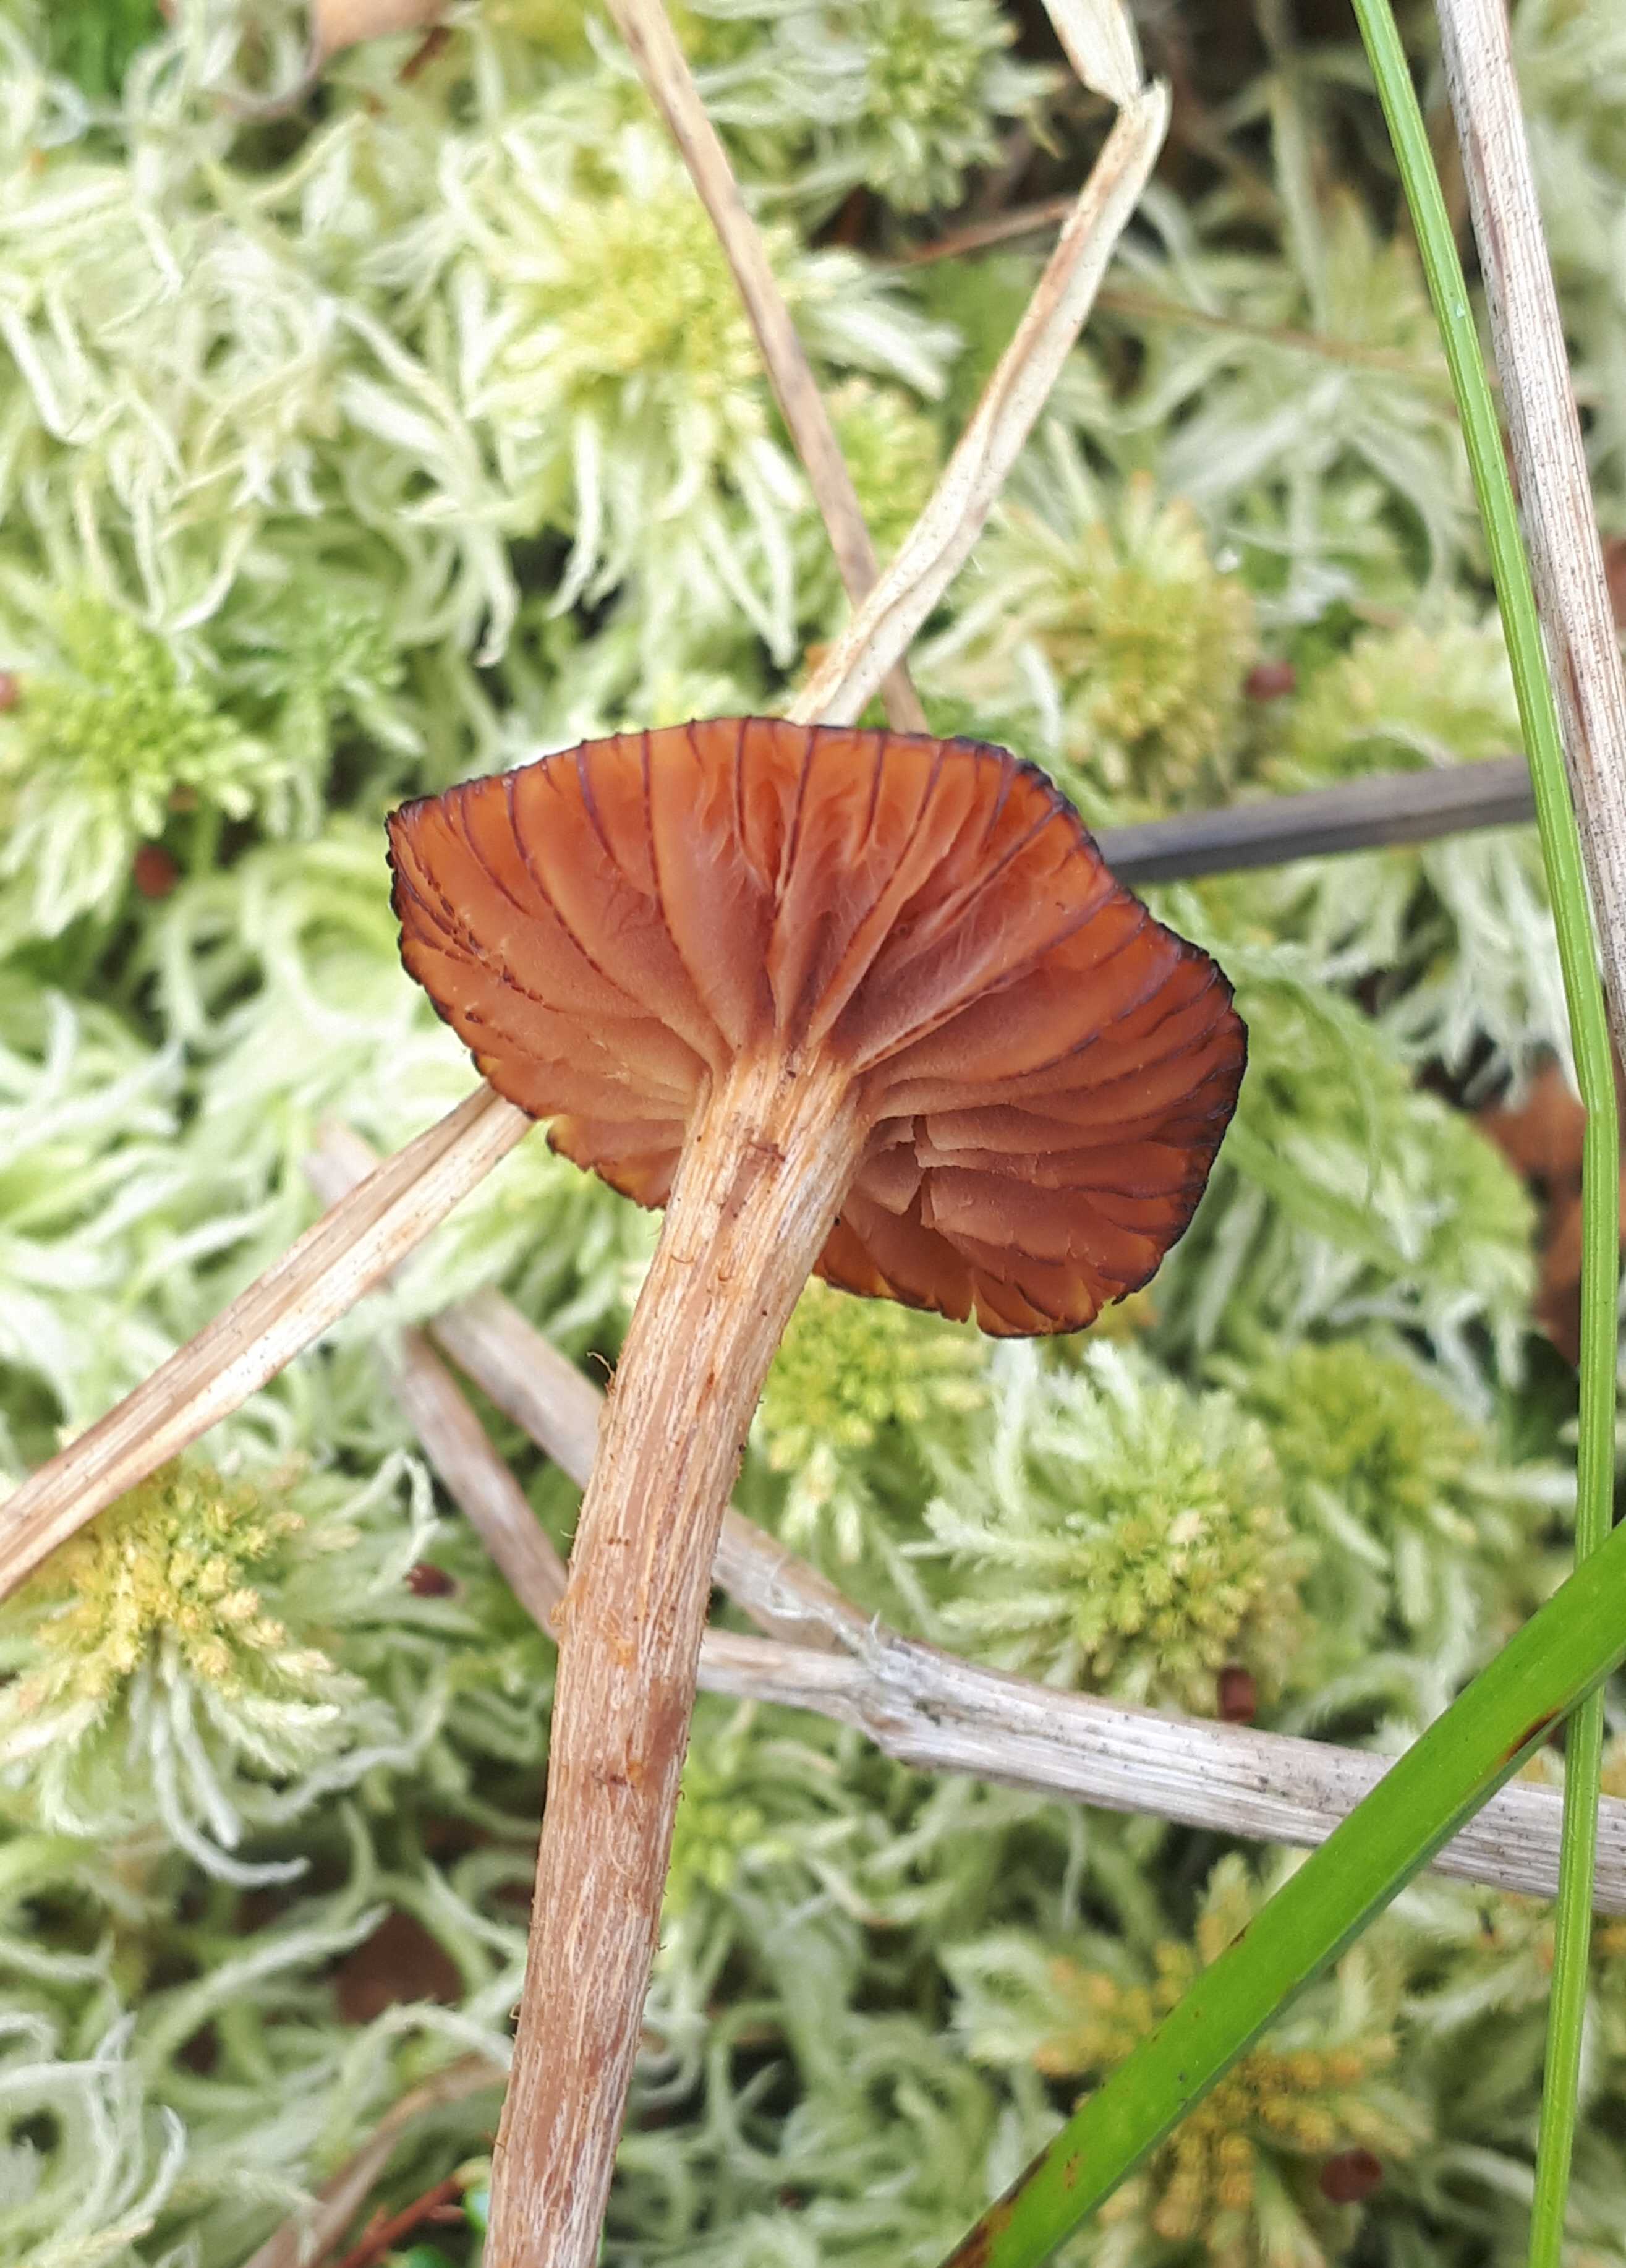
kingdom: Fungi
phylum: Basidiomycota
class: Agaricomycetes
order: Agaricales
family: Hydnangiaceae
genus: Laccaria
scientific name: Laccaria laccata
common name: rød ametysthat
